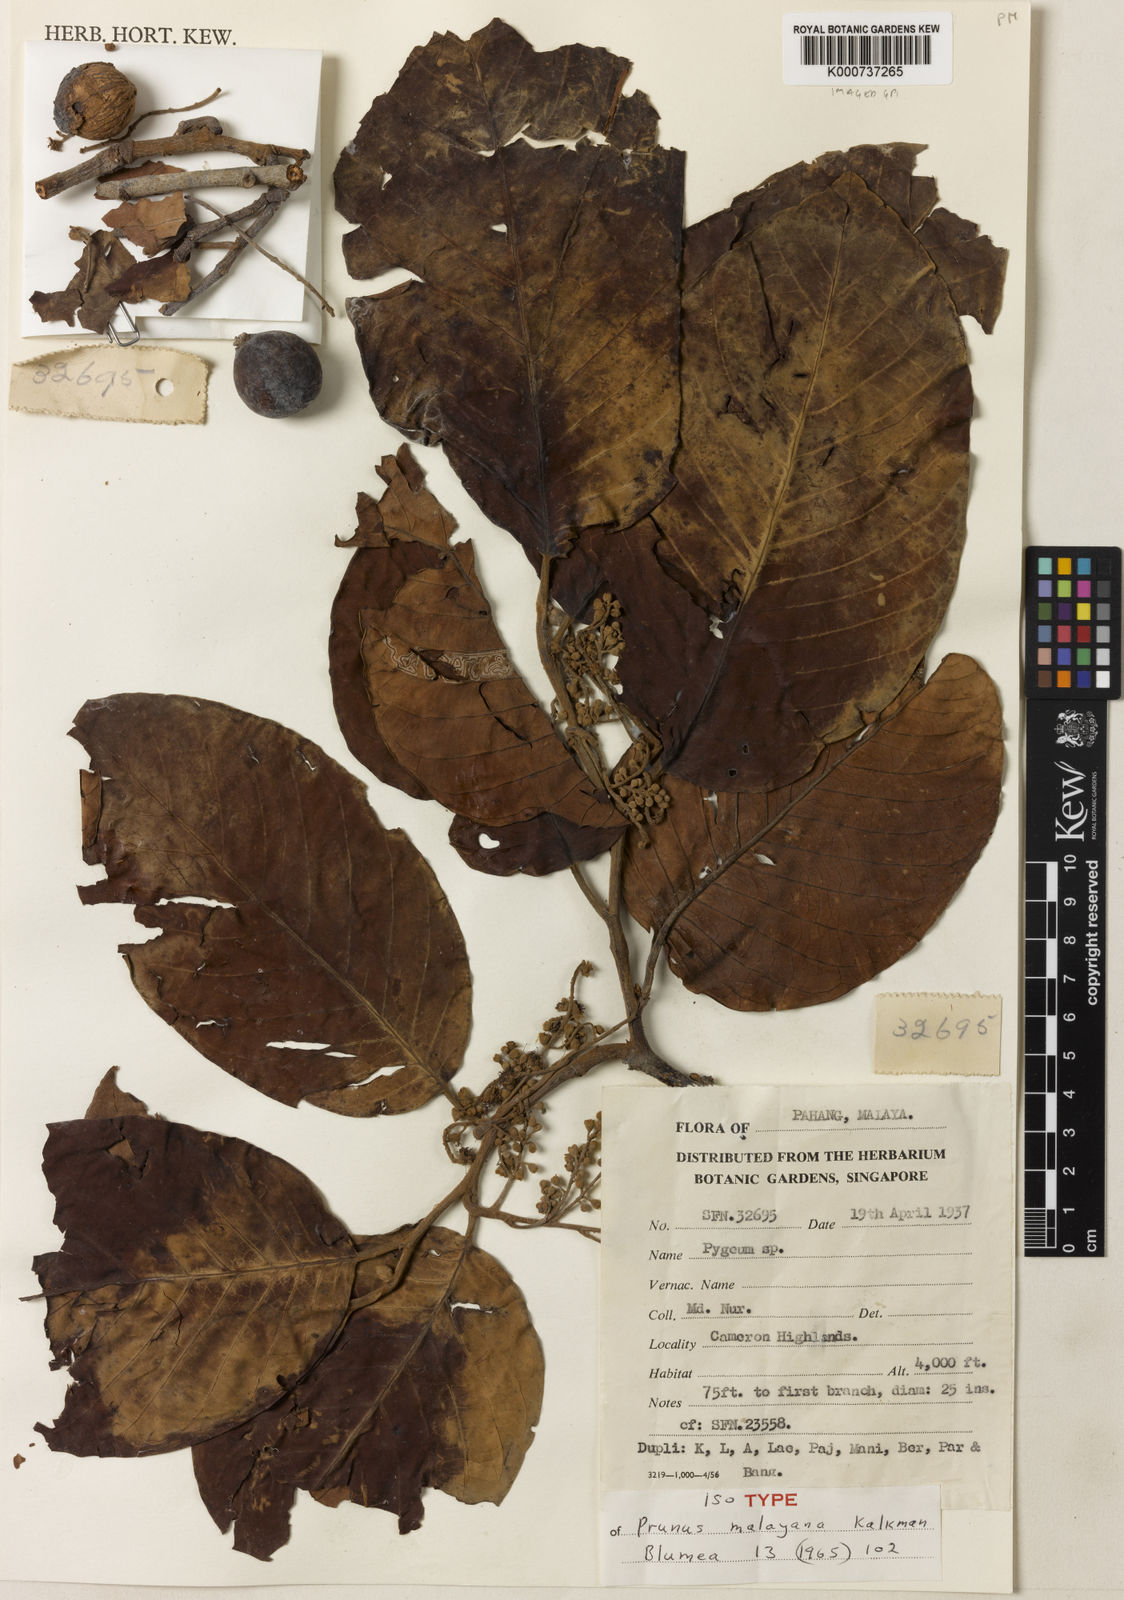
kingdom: Plantae
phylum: Tracheophyta
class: Magnoliopsida
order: Rosales
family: Rosaceae
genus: Prunus
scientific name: Prunus malayana
